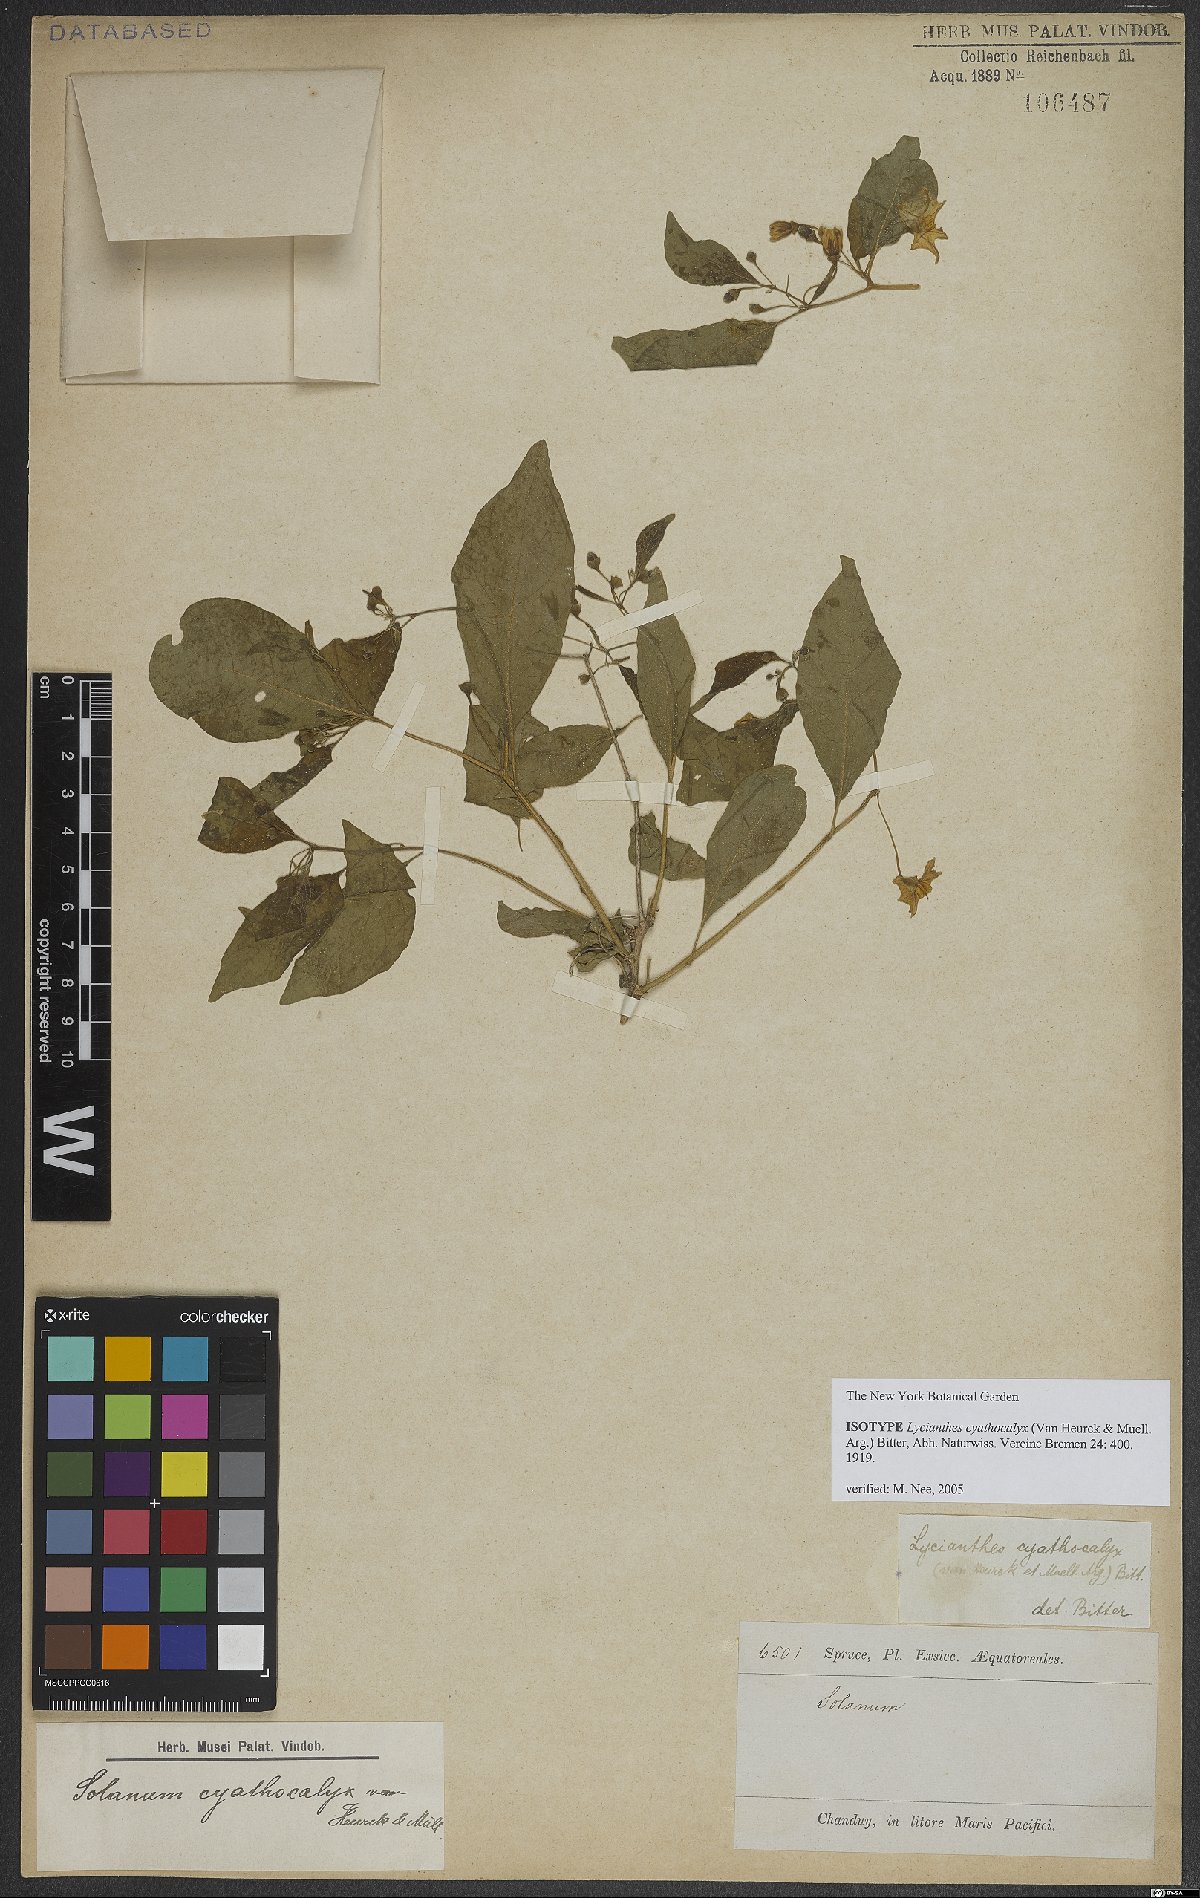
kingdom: Plantae
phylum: Tracheophyta
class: Magnoliopsida
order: Solanales
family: Solanaceae
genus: Lycianthes
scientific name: Lycianthes cyathocalyx
